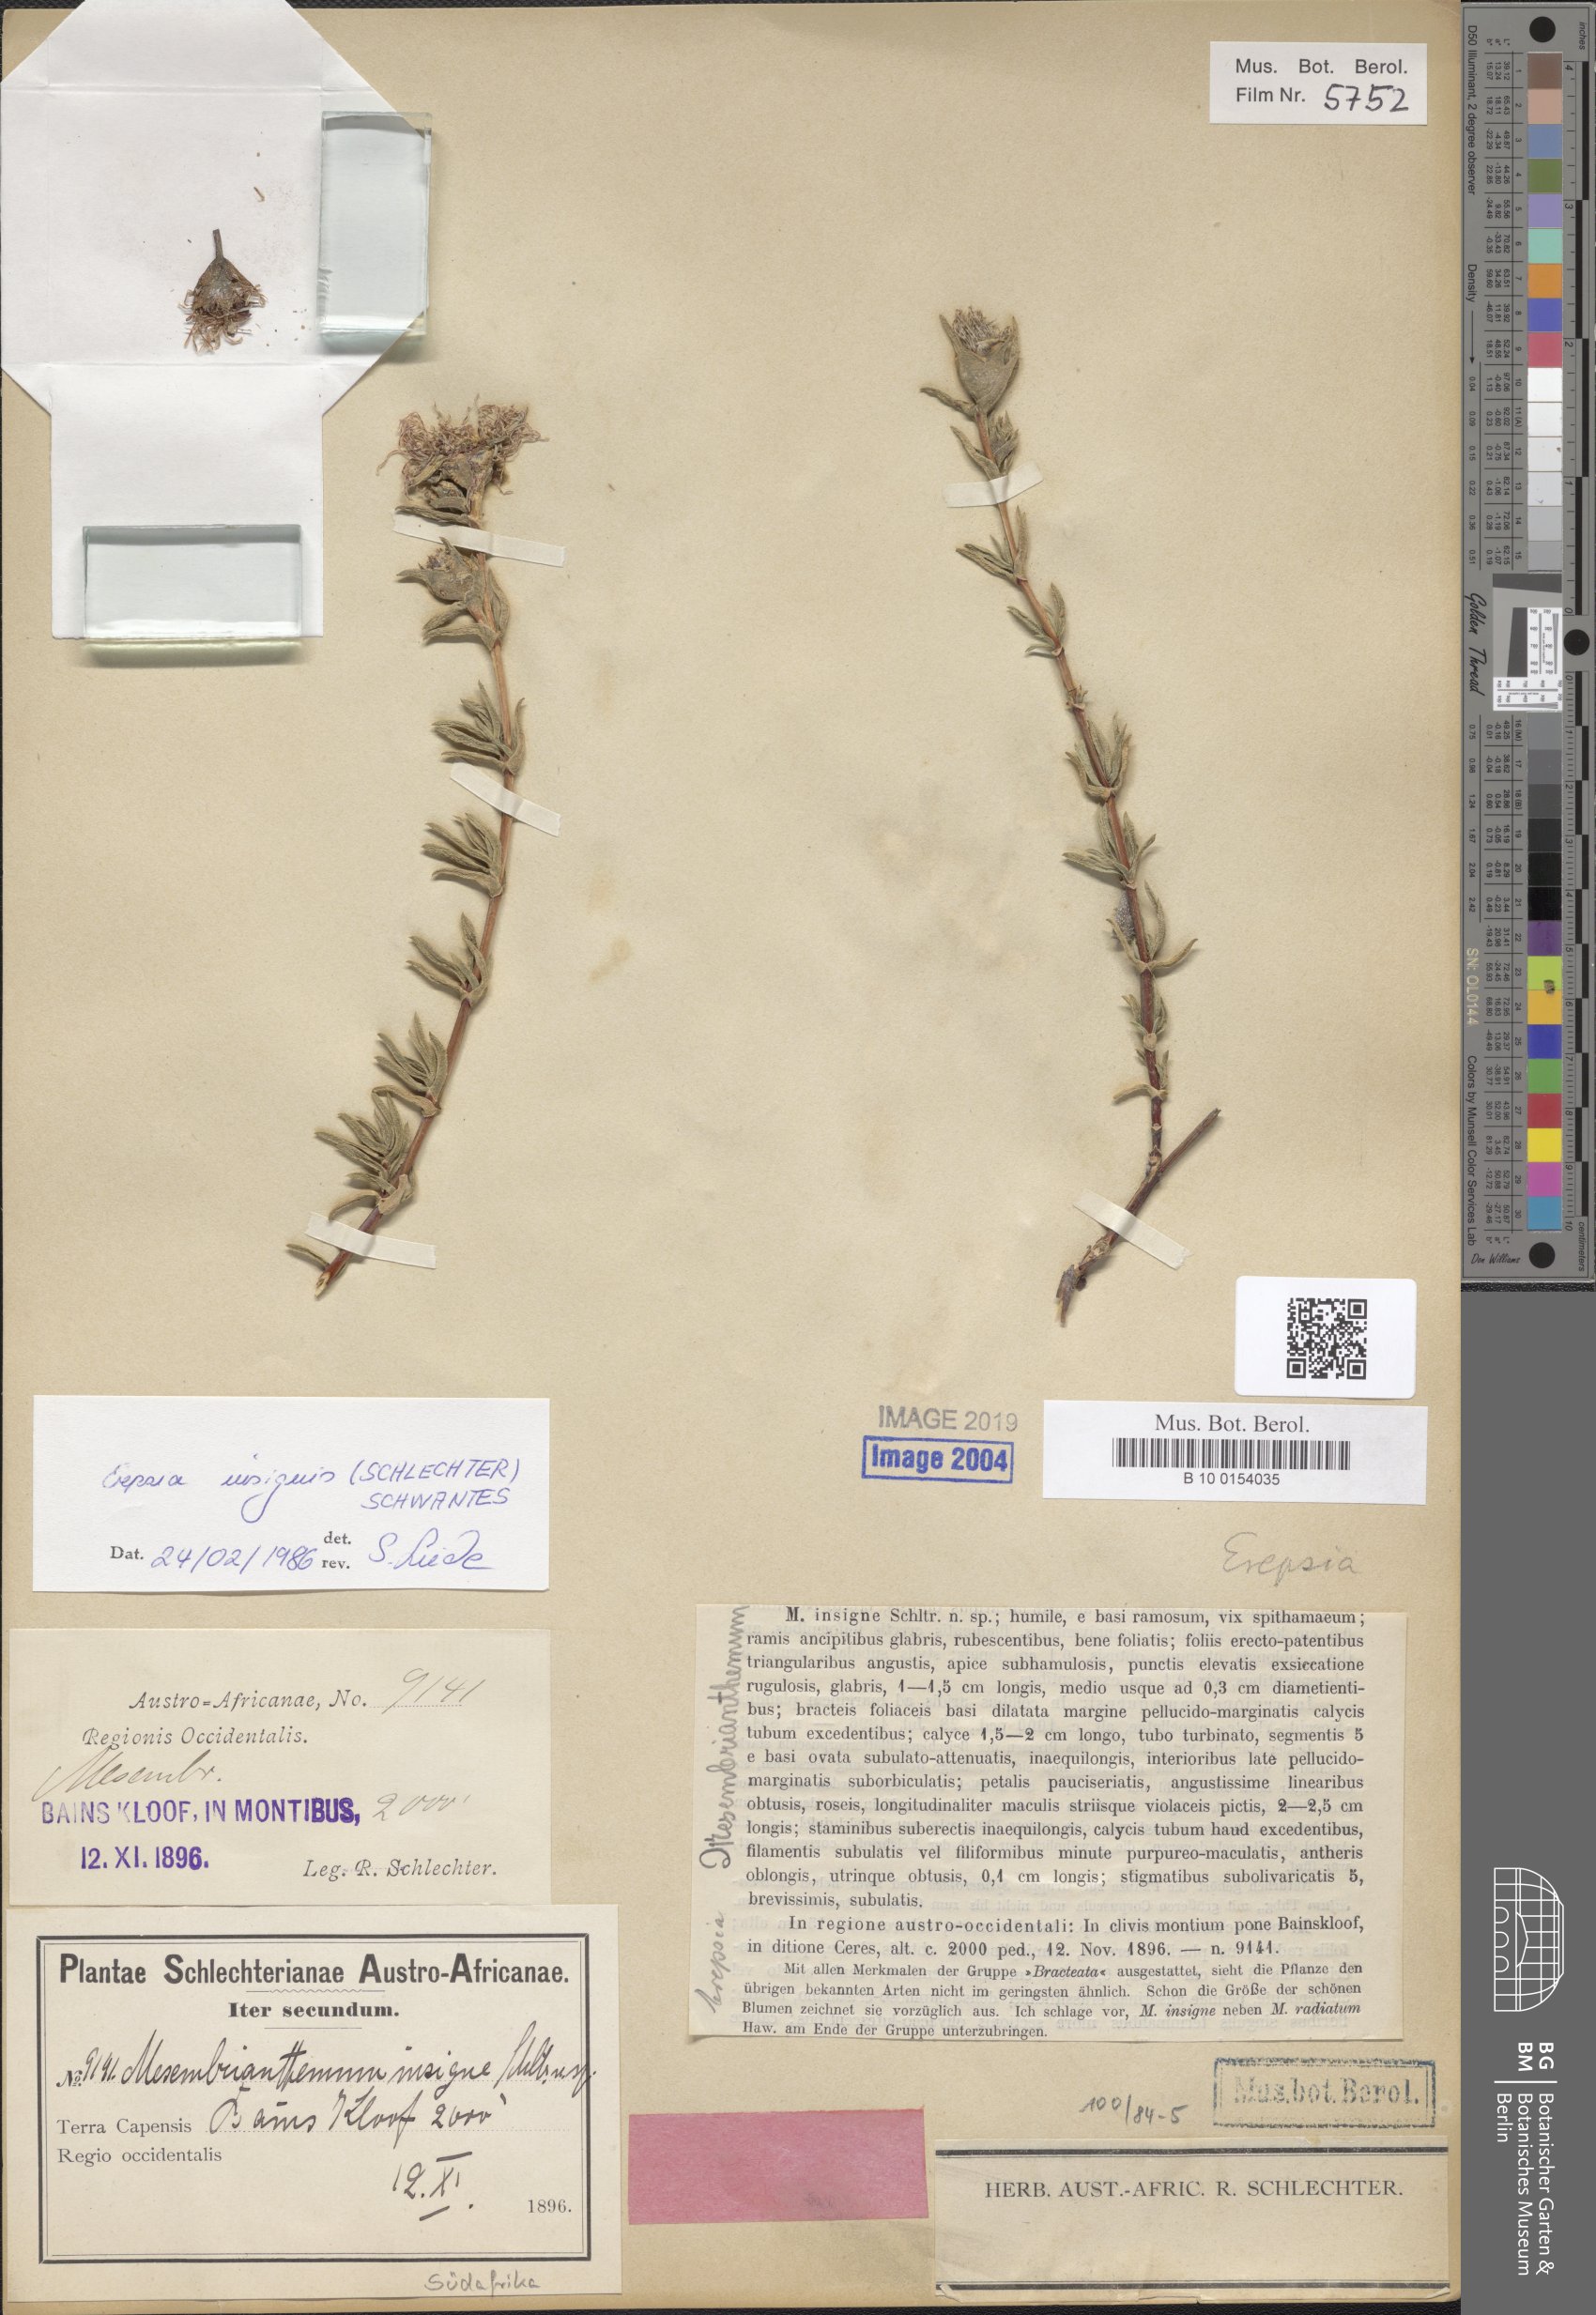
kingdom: Plantae
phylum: Tracheophyta
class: Magnoliopsida
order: Caryophyllales
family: Aizoaceae
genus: Erepsia
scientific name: Erepsia insignis
